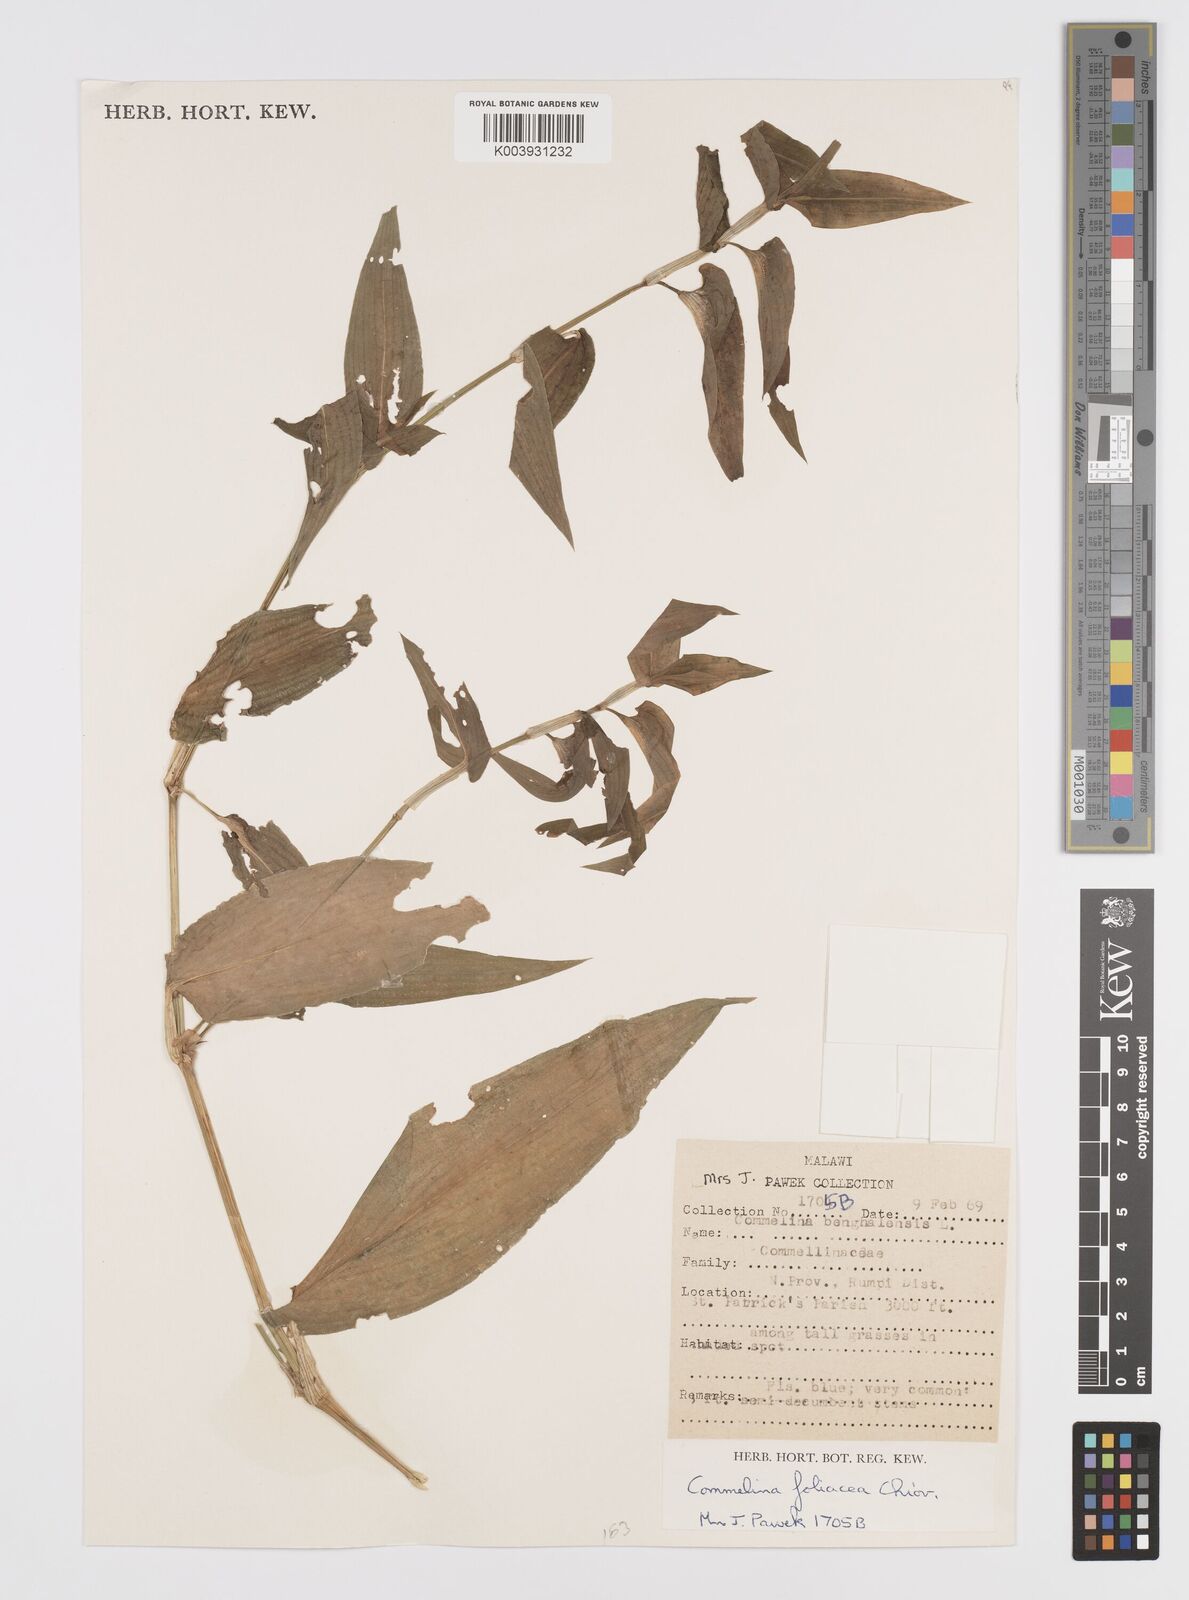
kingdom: Plantae
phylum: Tracheophyta
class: Liliopsida
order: Commelinales
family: Commelinaceae
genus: Commelina
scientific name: Commelina foliacea
